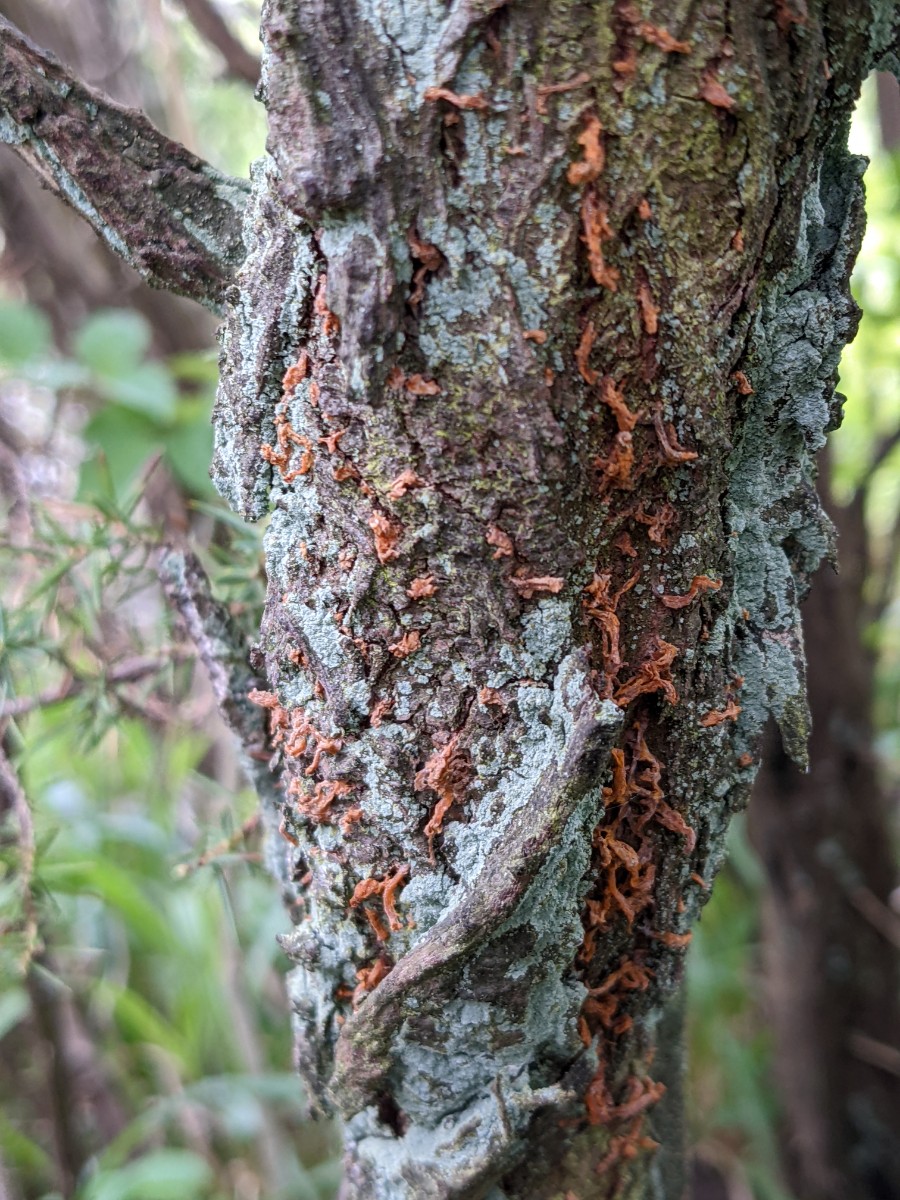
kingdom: Fungi
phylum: Basidiomycota
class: Pucciniomycetes
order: Pucciniales
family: Gymnosporangiaceae
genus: Gymnosporangium
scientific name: Gymnosporangium clavariiforme
